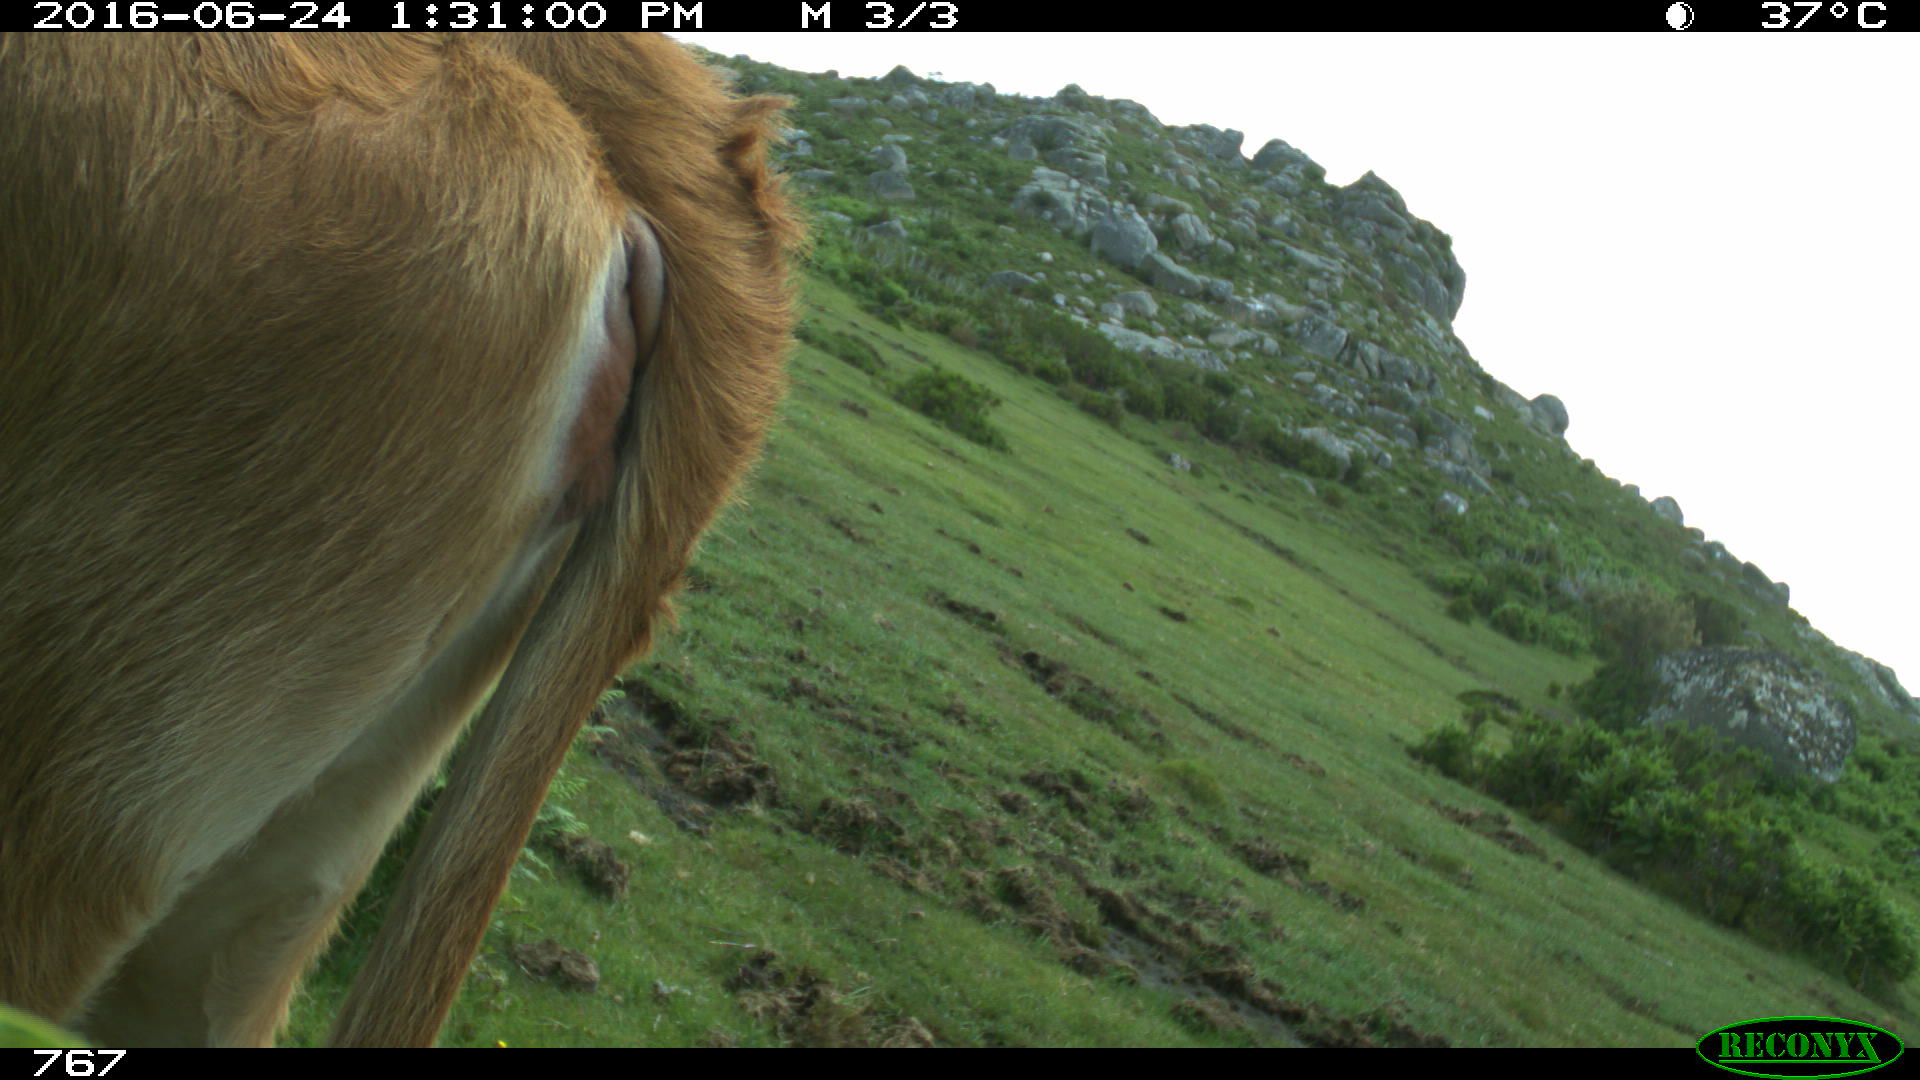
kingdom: Animalia
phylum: Chordata
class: Mammalia
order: Artiodactyla
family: Bovidae
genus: Bos
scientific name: Bos taurus
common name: Domesticated cattle
